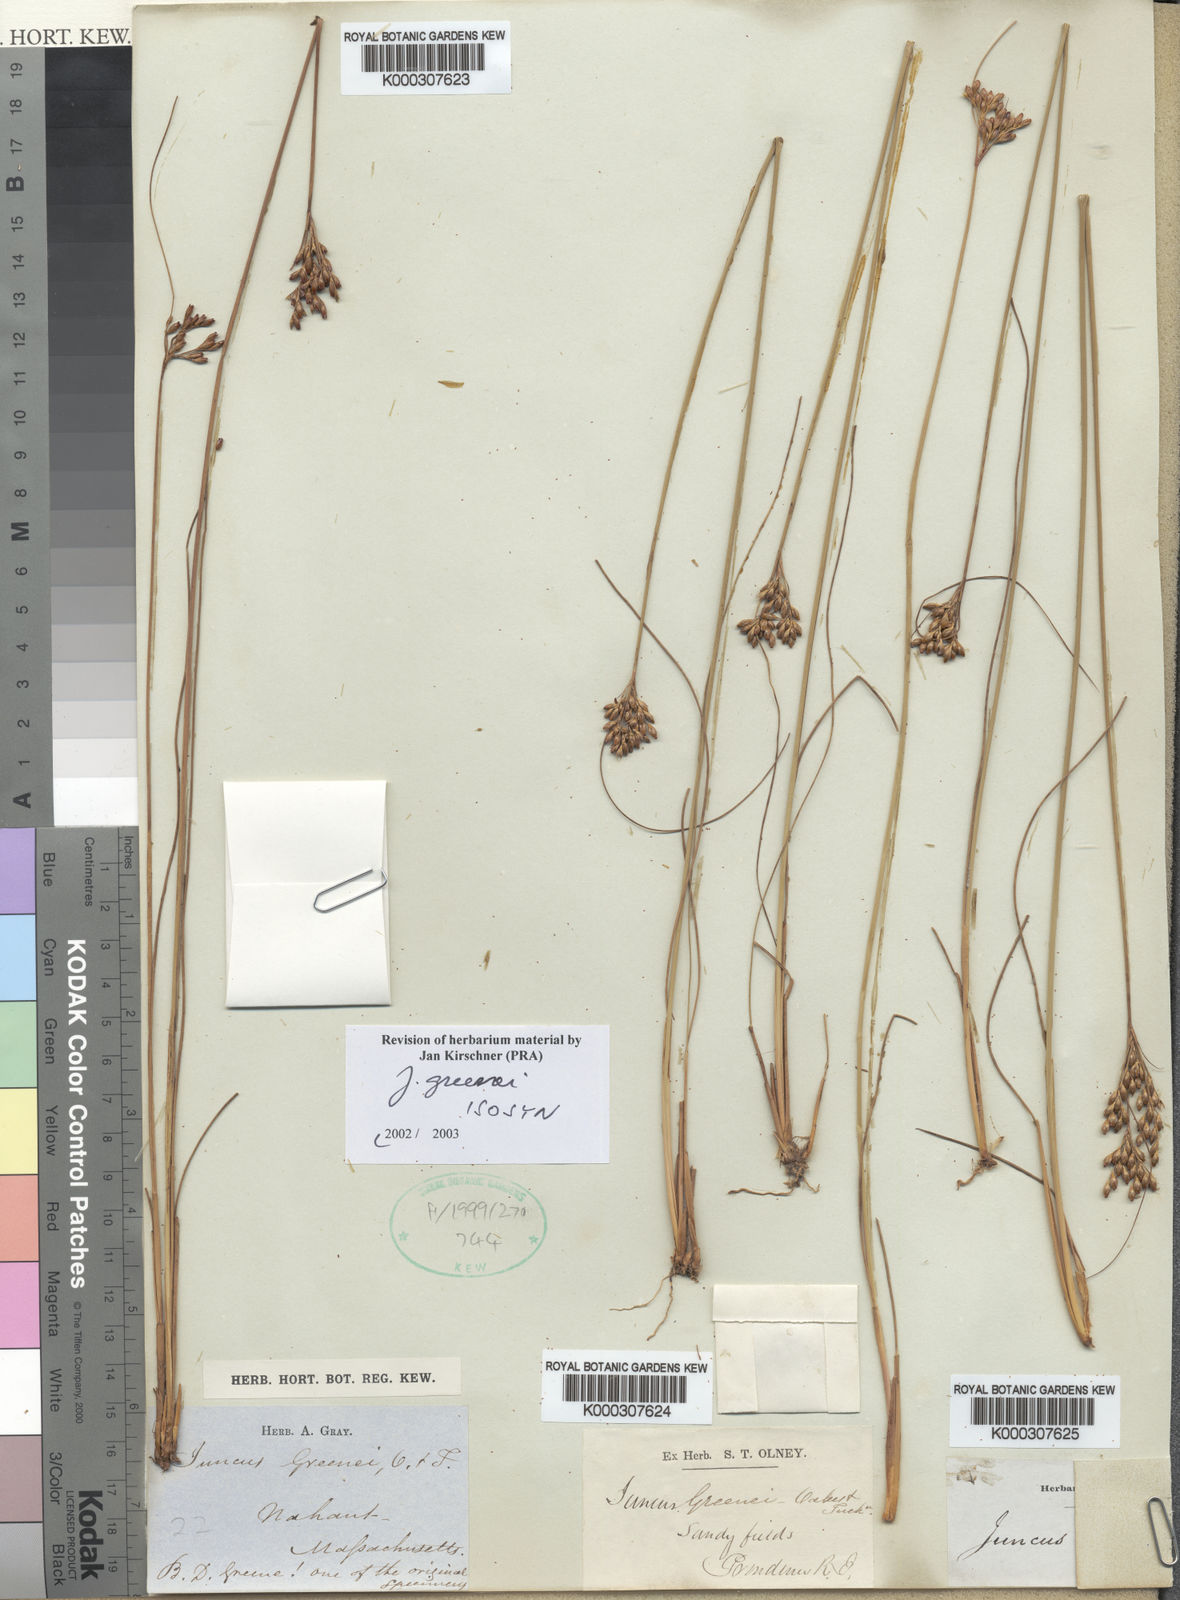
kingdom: Plantae
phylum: Tracheophyta
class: Liliopsida
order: Poales
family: Juncaceae
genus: Juncus
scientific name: Juncus greenei
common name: Greene's rush
